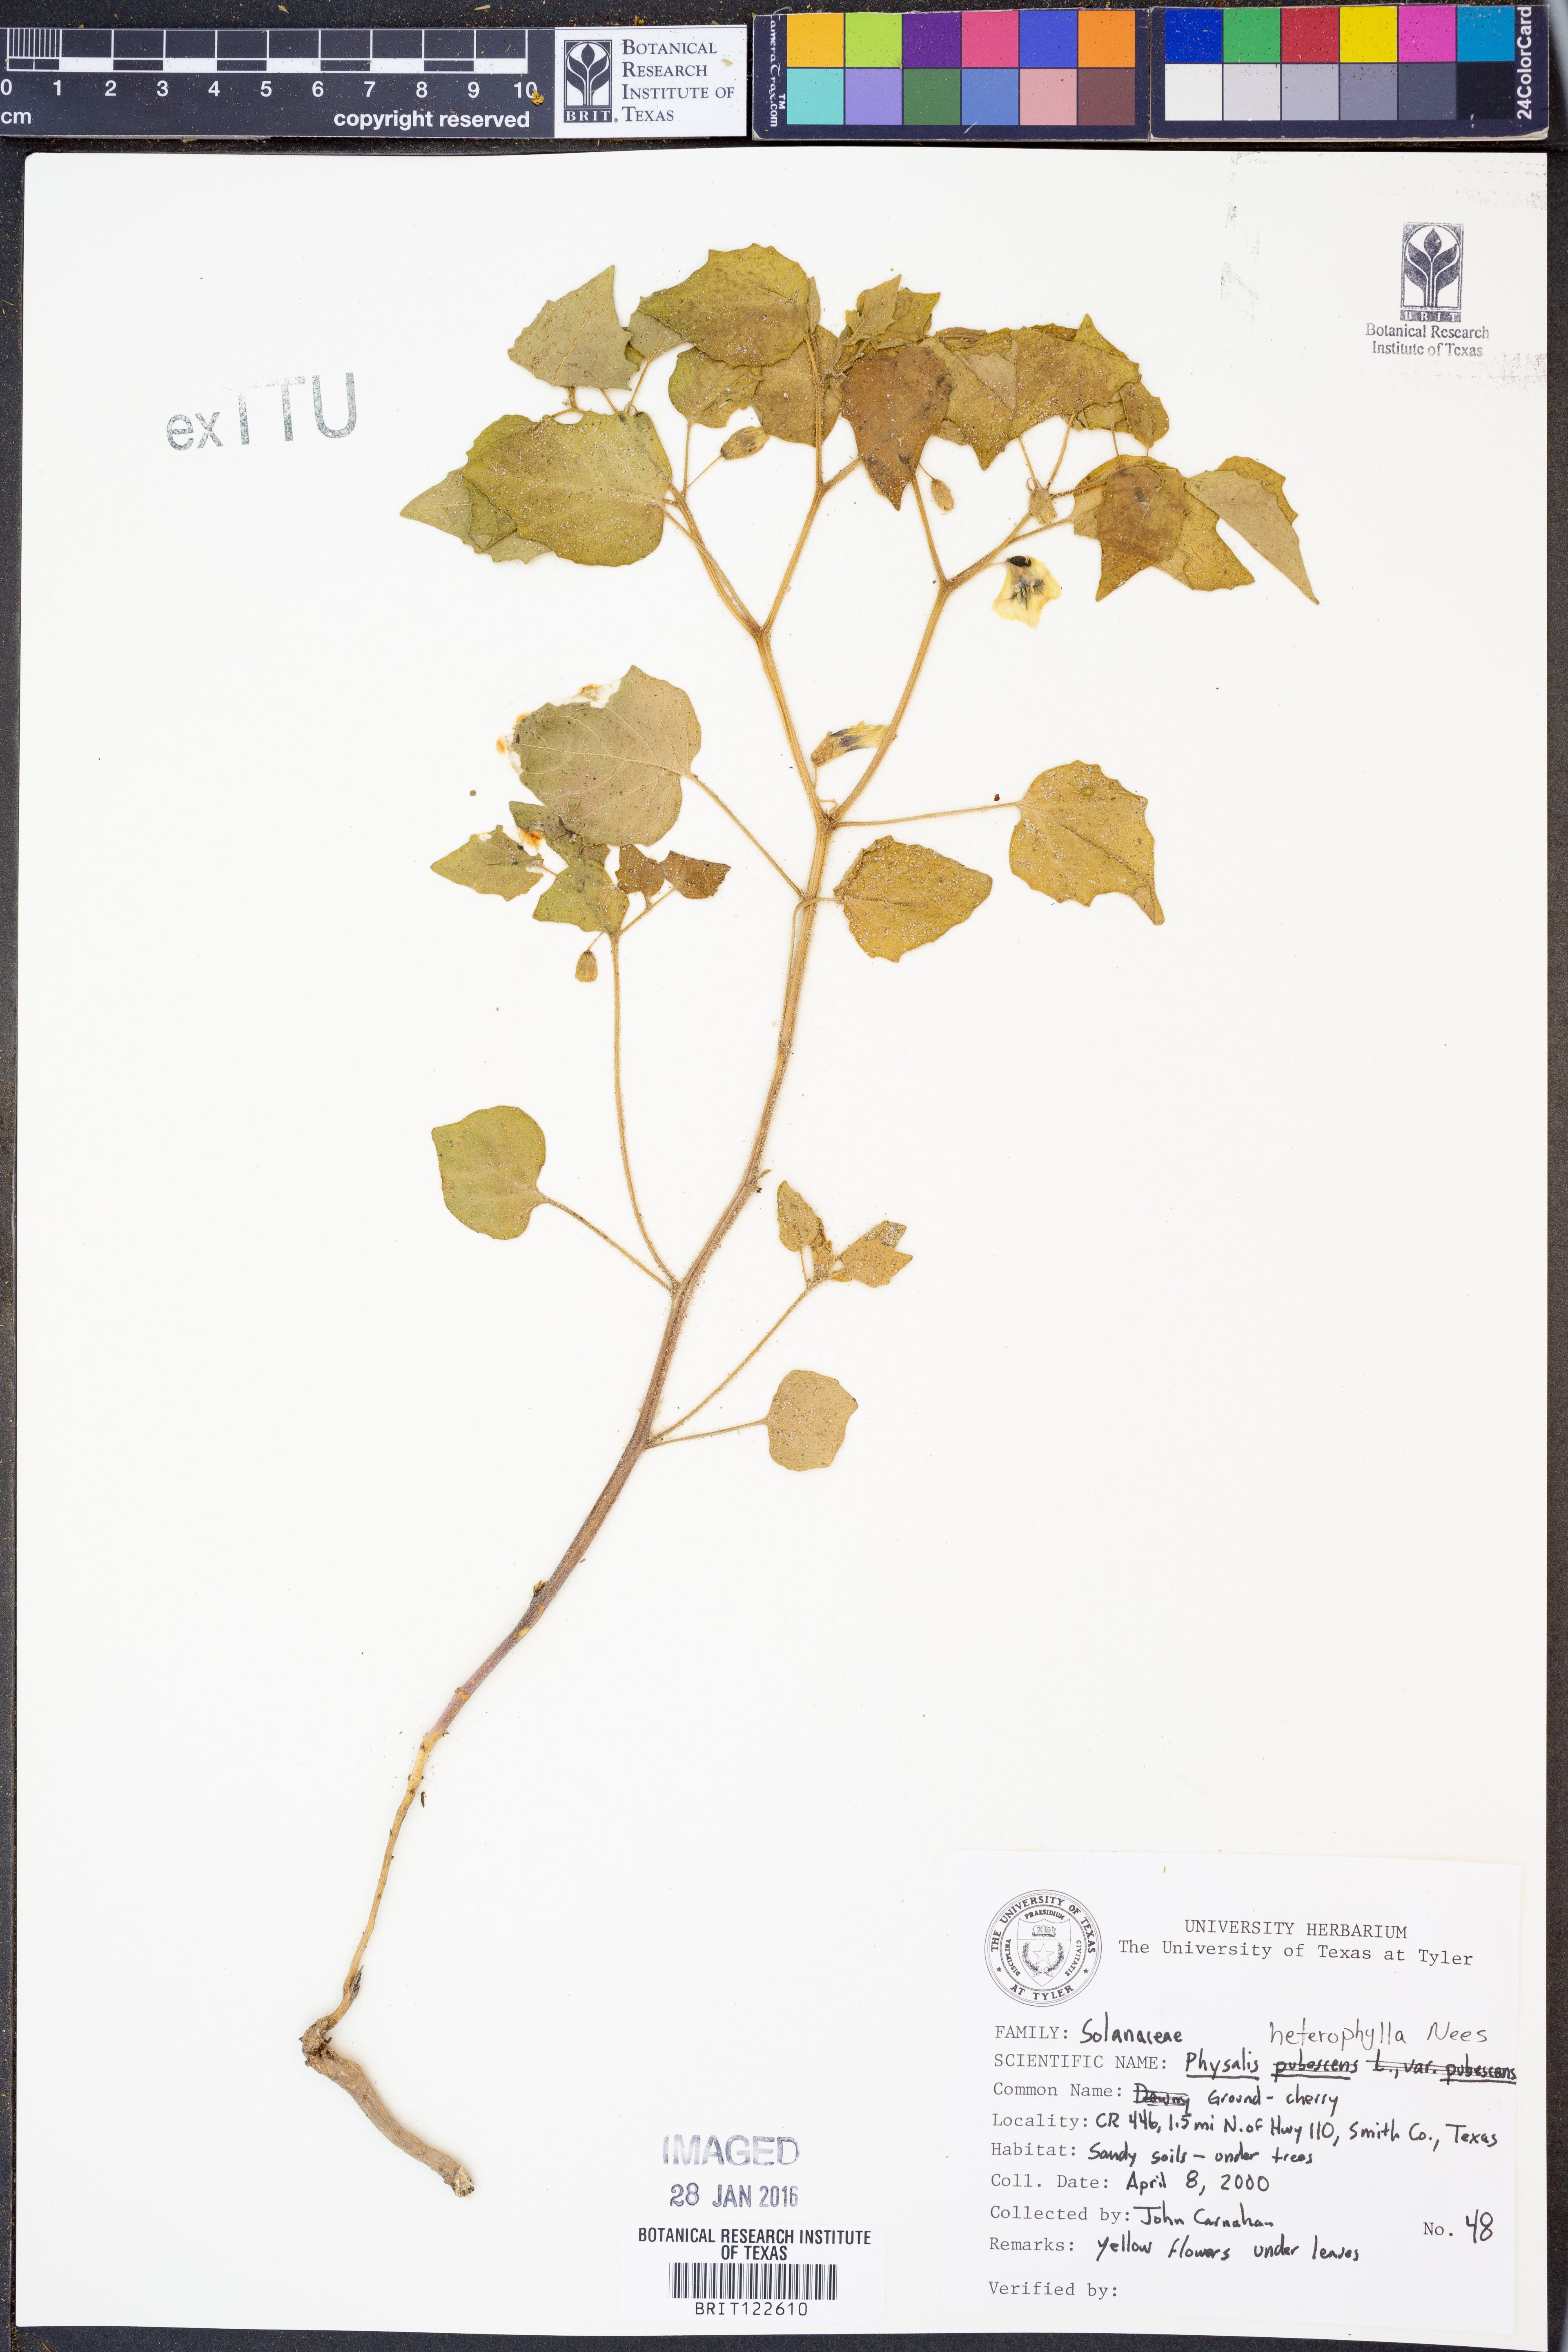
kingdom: Plantae
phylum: Tracheophyta
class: Magnoliopsida
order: Solanales
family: Solanaceae
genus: Physalis
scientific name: Physalis heterophylla
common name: Clammy ground-cherry
